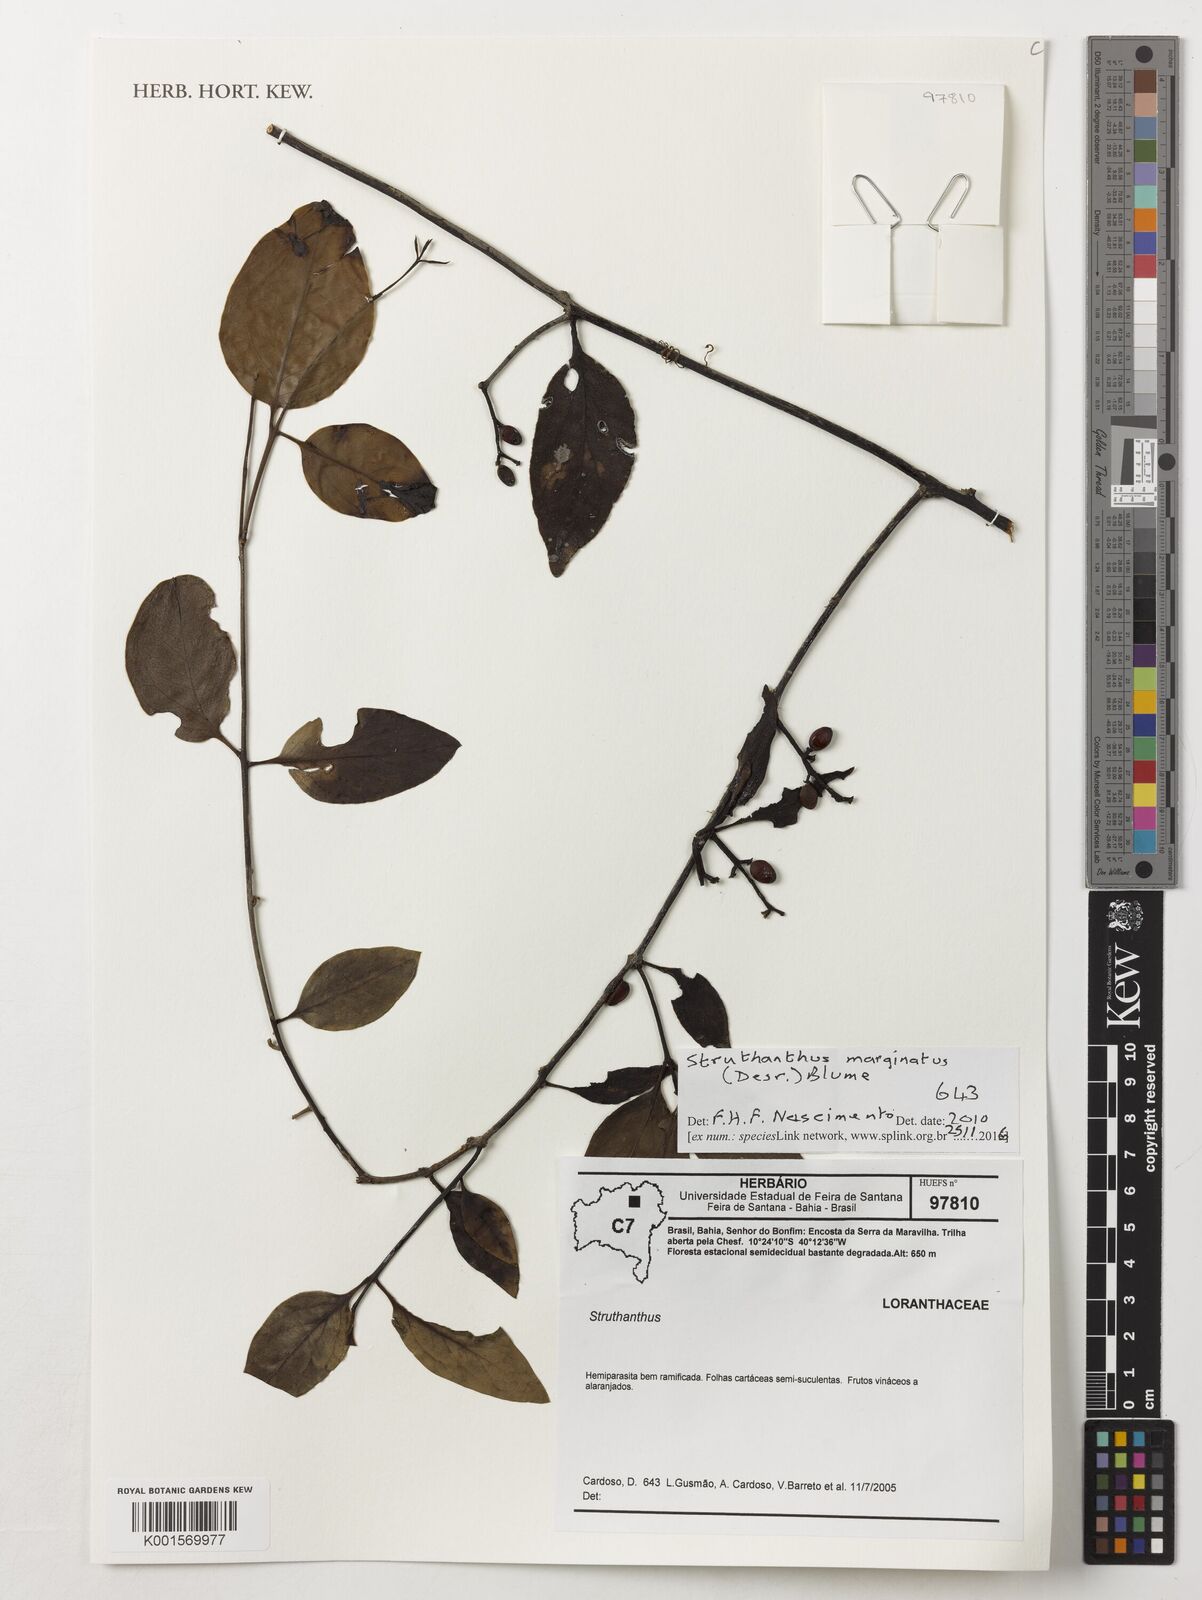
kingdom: Plantae
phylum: Tracheophyta
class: Magnoliopsida
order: Santalales
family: Loranthaceae
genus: Struthanthus
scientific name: Struthanthus marginatus
